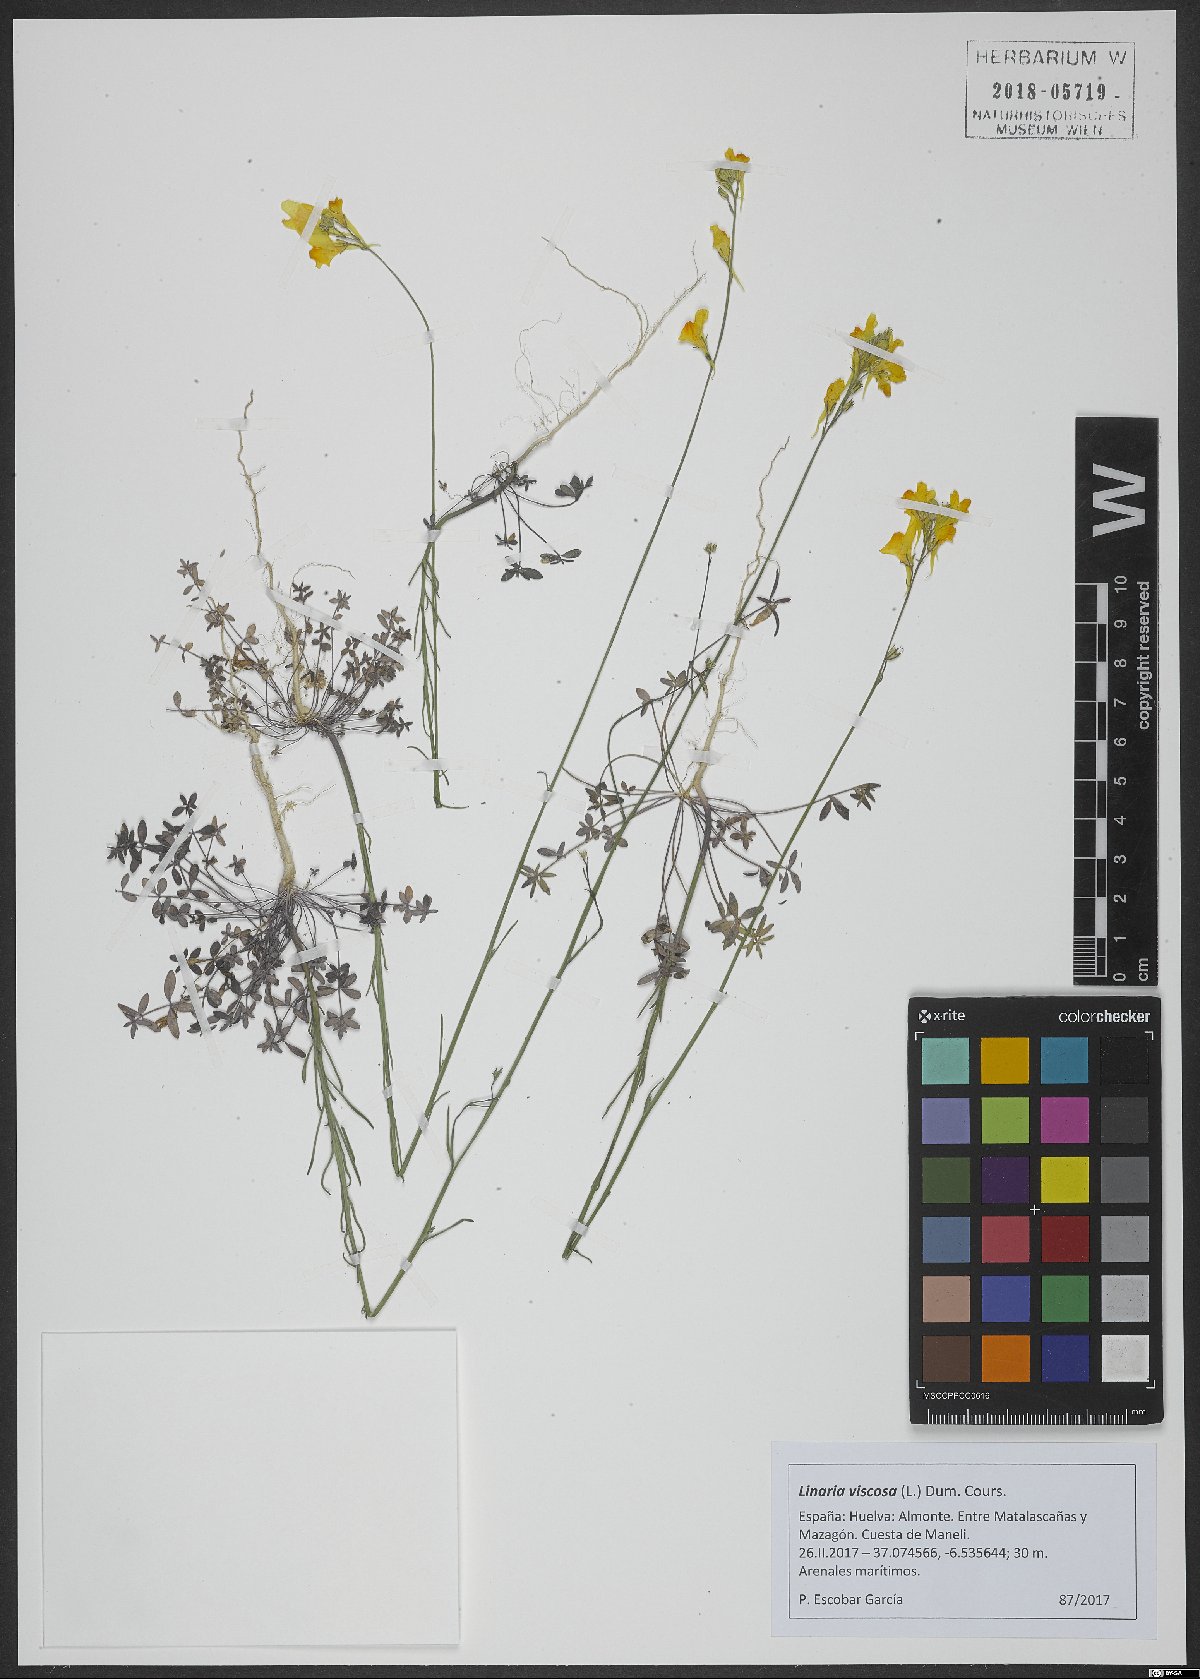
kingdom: Plantae
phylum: Tracheophyta
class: Magnoliopsida
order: Lamiales
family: Plantaginaceae
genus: Linaria
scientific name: Linaria viscosa
